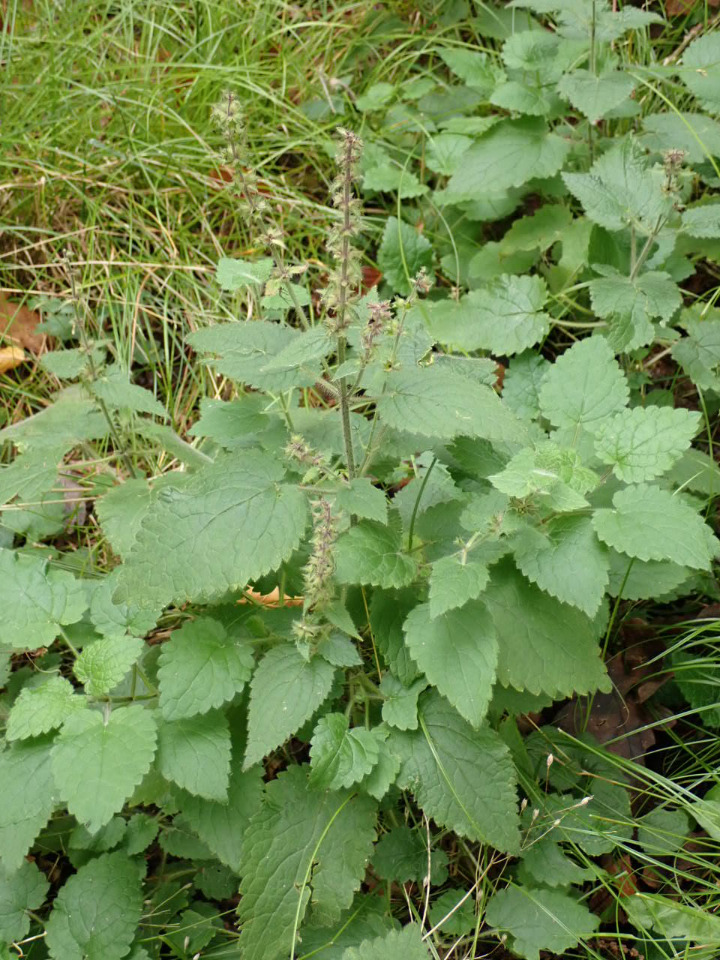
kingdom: Plantae
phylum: Tracheophyta
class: Magnoliopsida
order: Lamiales
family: Lamiaceae
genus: Stachys
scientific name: Stachys sylvatica
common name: Skov-galtetand
